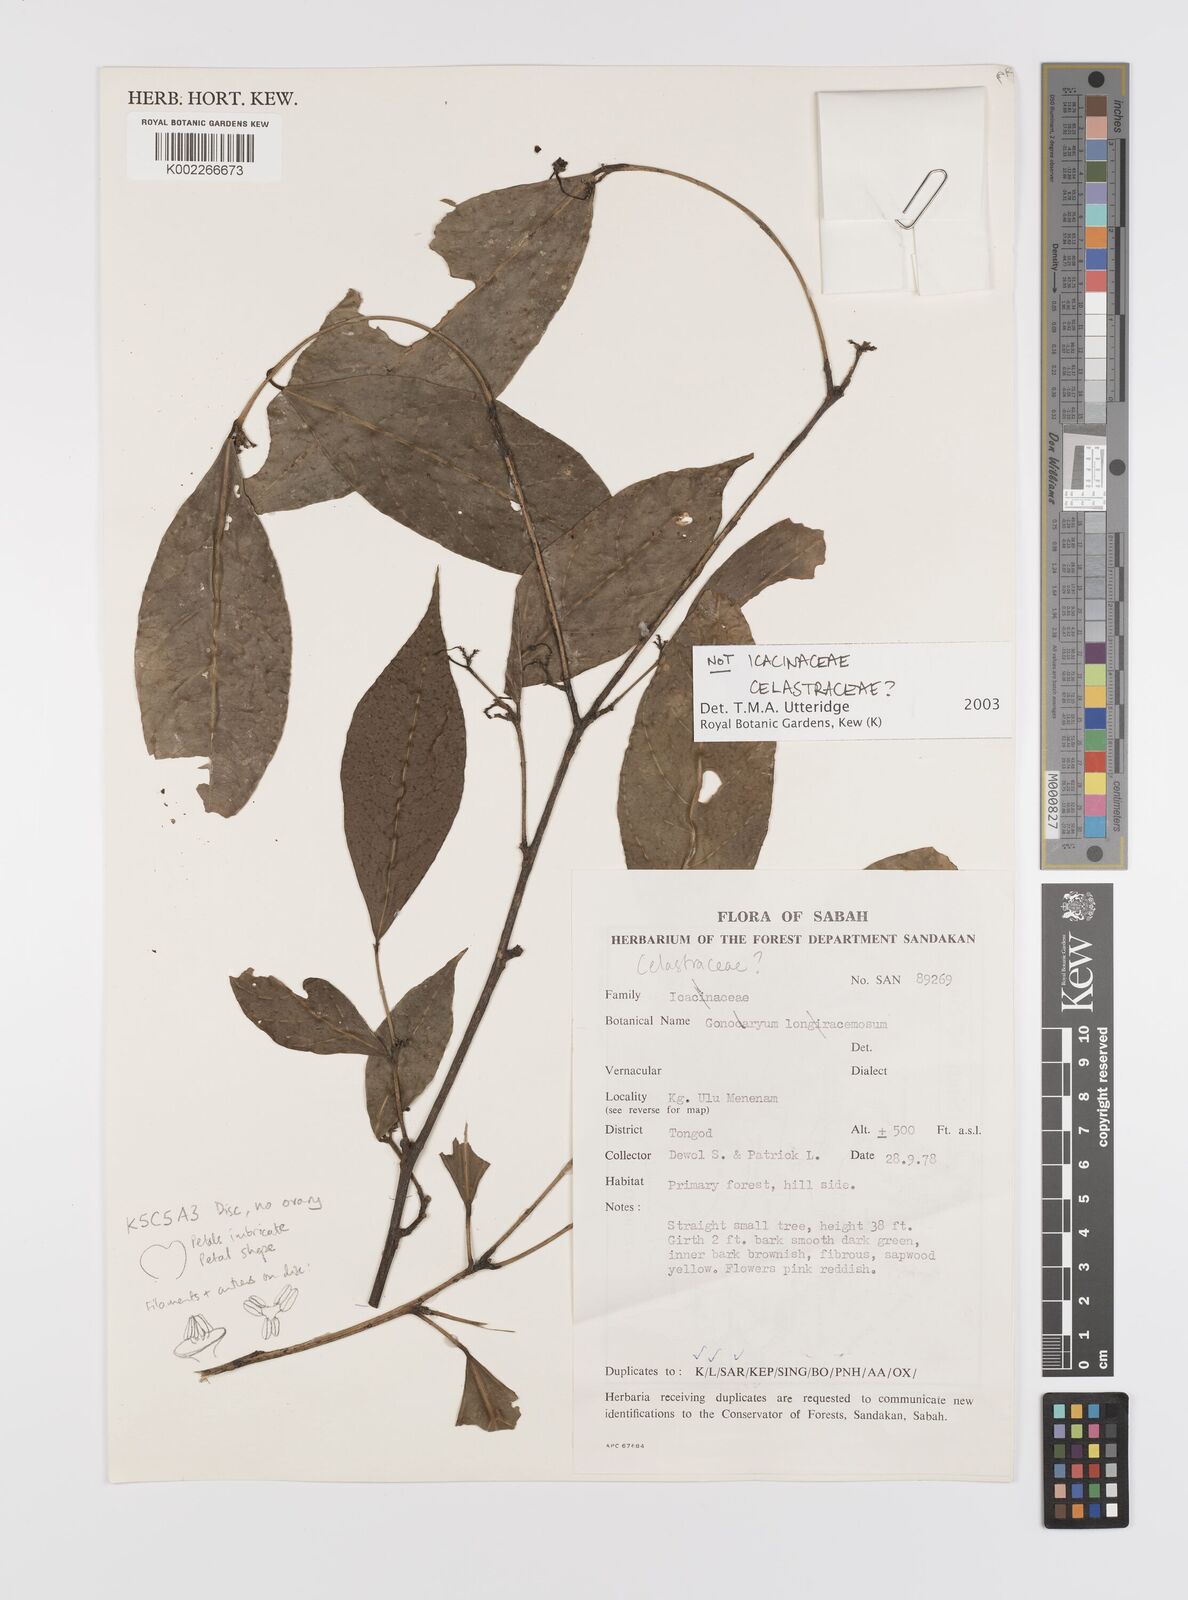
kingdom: Plantae
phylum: Tracheophyta
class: Magnoliopsida
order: Celastrales
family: Celastraceae
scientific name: Celastraceae
